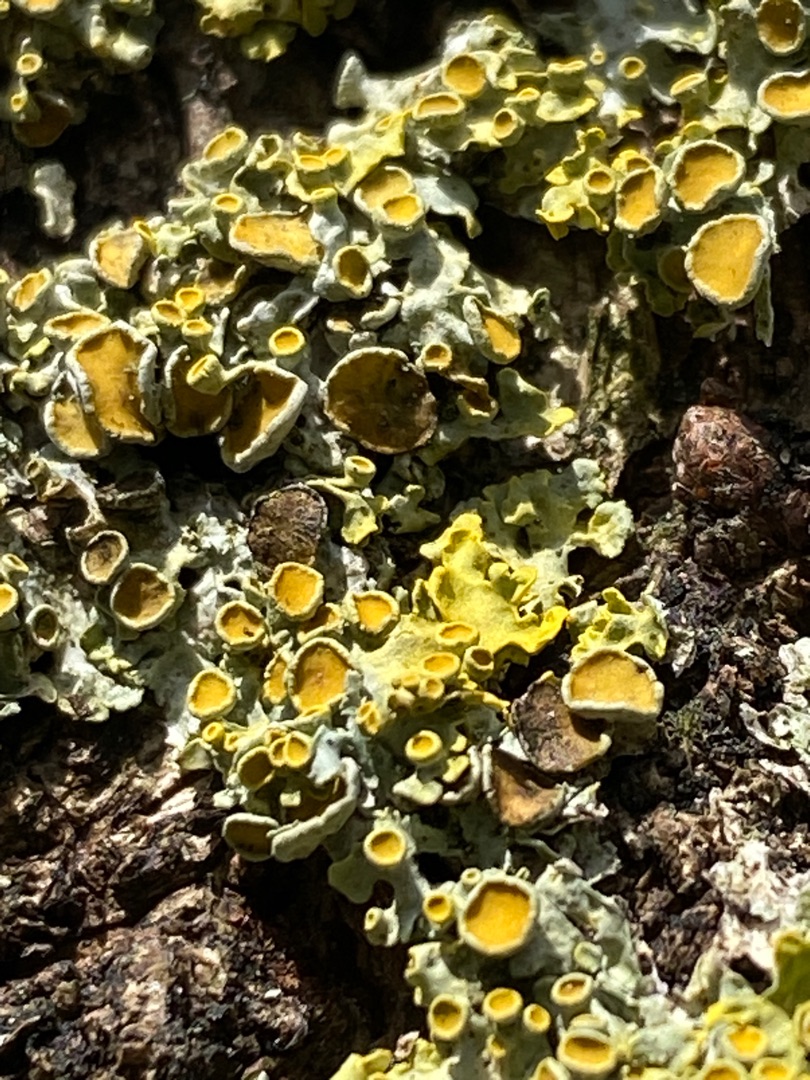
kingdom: Fungi
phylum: Ascomycota
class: Lecanoromycetes
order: Teloschistales
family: Teloschistaceae
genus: Xanthoria
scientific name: Xanthoria parietina
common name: Almindelig væggelav
